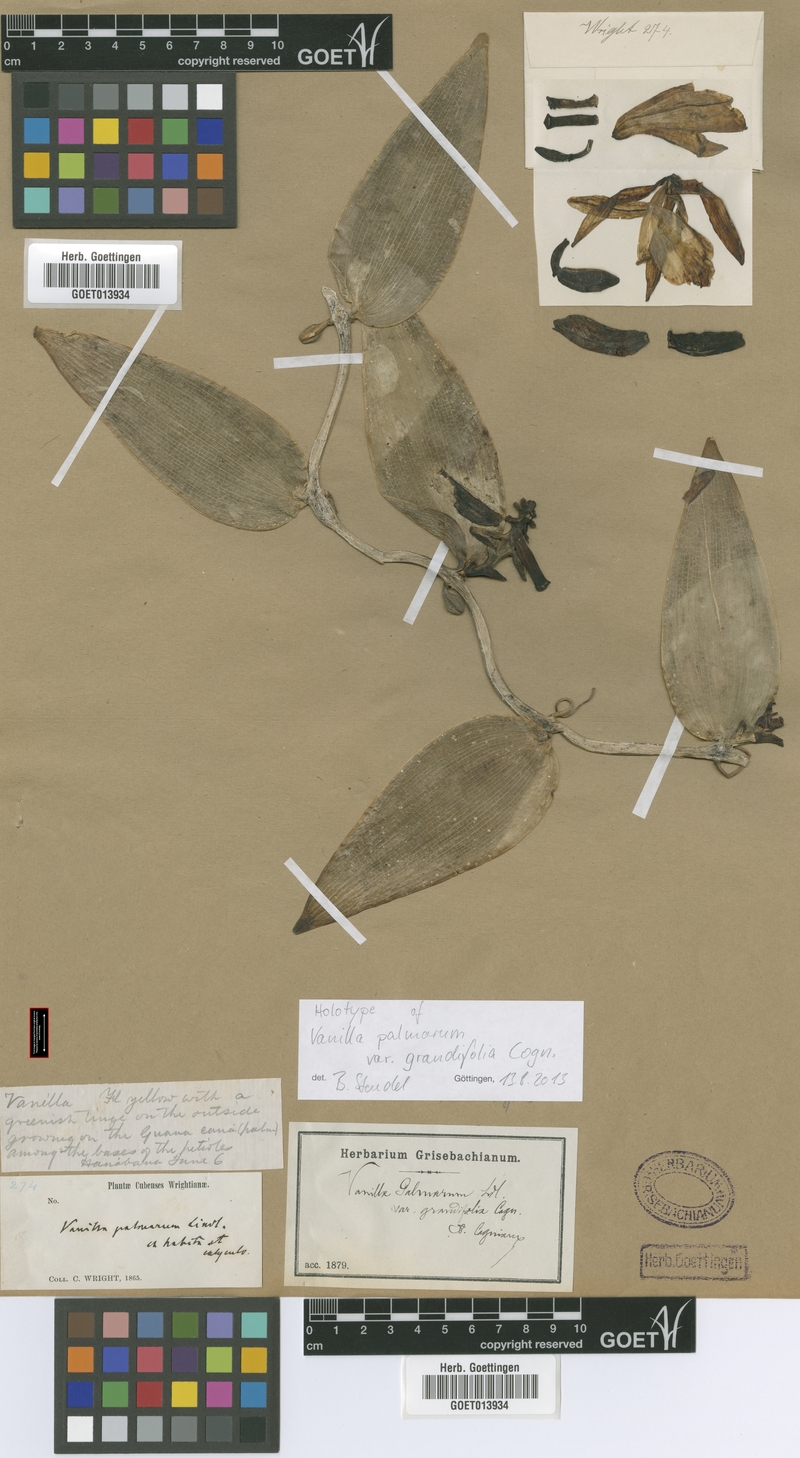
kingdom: Plantae
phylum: Tracheophyta
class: Liliopsida
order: Asparagales
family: Orchidaceae
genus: Vanilla
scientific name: Vanilla palmarum
